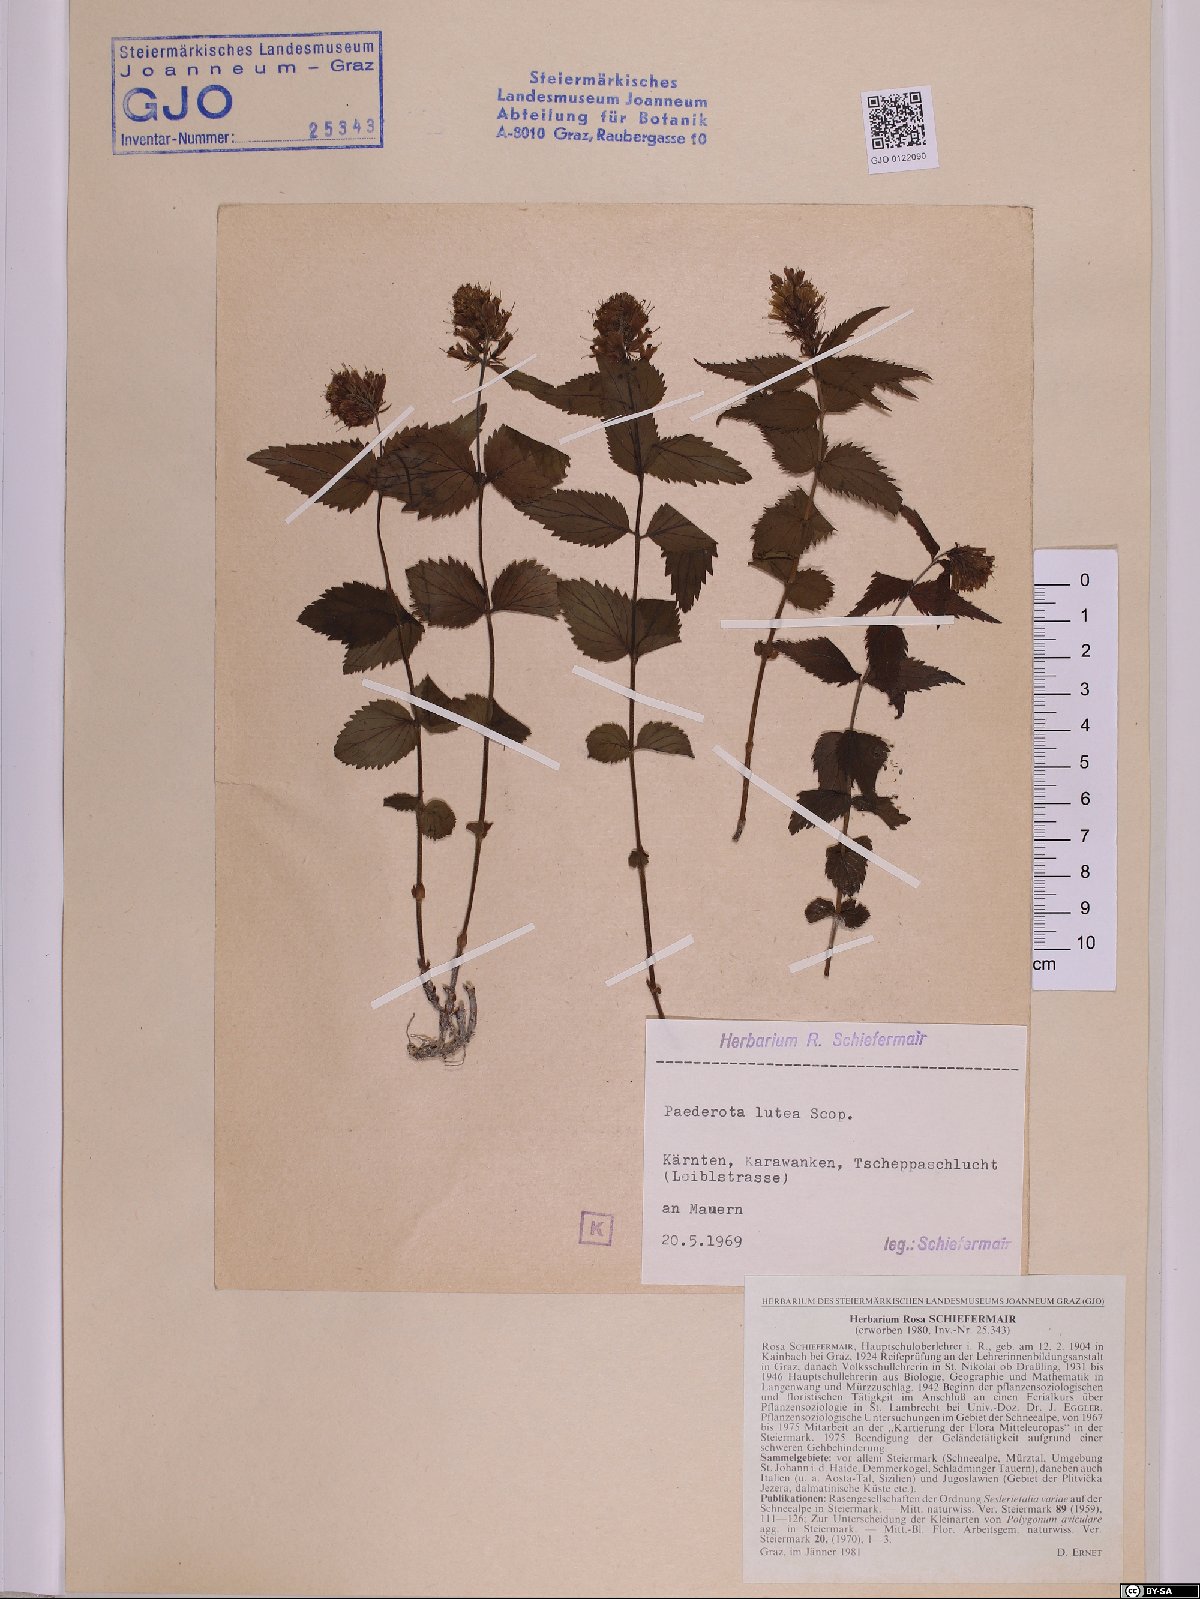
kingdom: Plantae
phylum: Tracheophyta
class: Magnoliopsida
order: Lamiales
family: Plantaginaceae
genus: Paederota
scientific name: Paederota lutea
